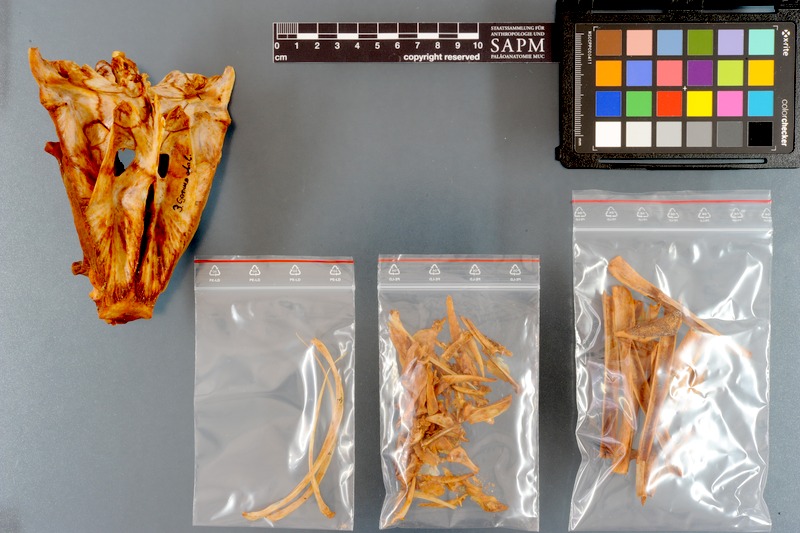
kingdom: Animalia
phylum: Chordata
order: Perciformes
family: Scombridae
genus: Thunnus
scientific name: Thunnus alalunga
